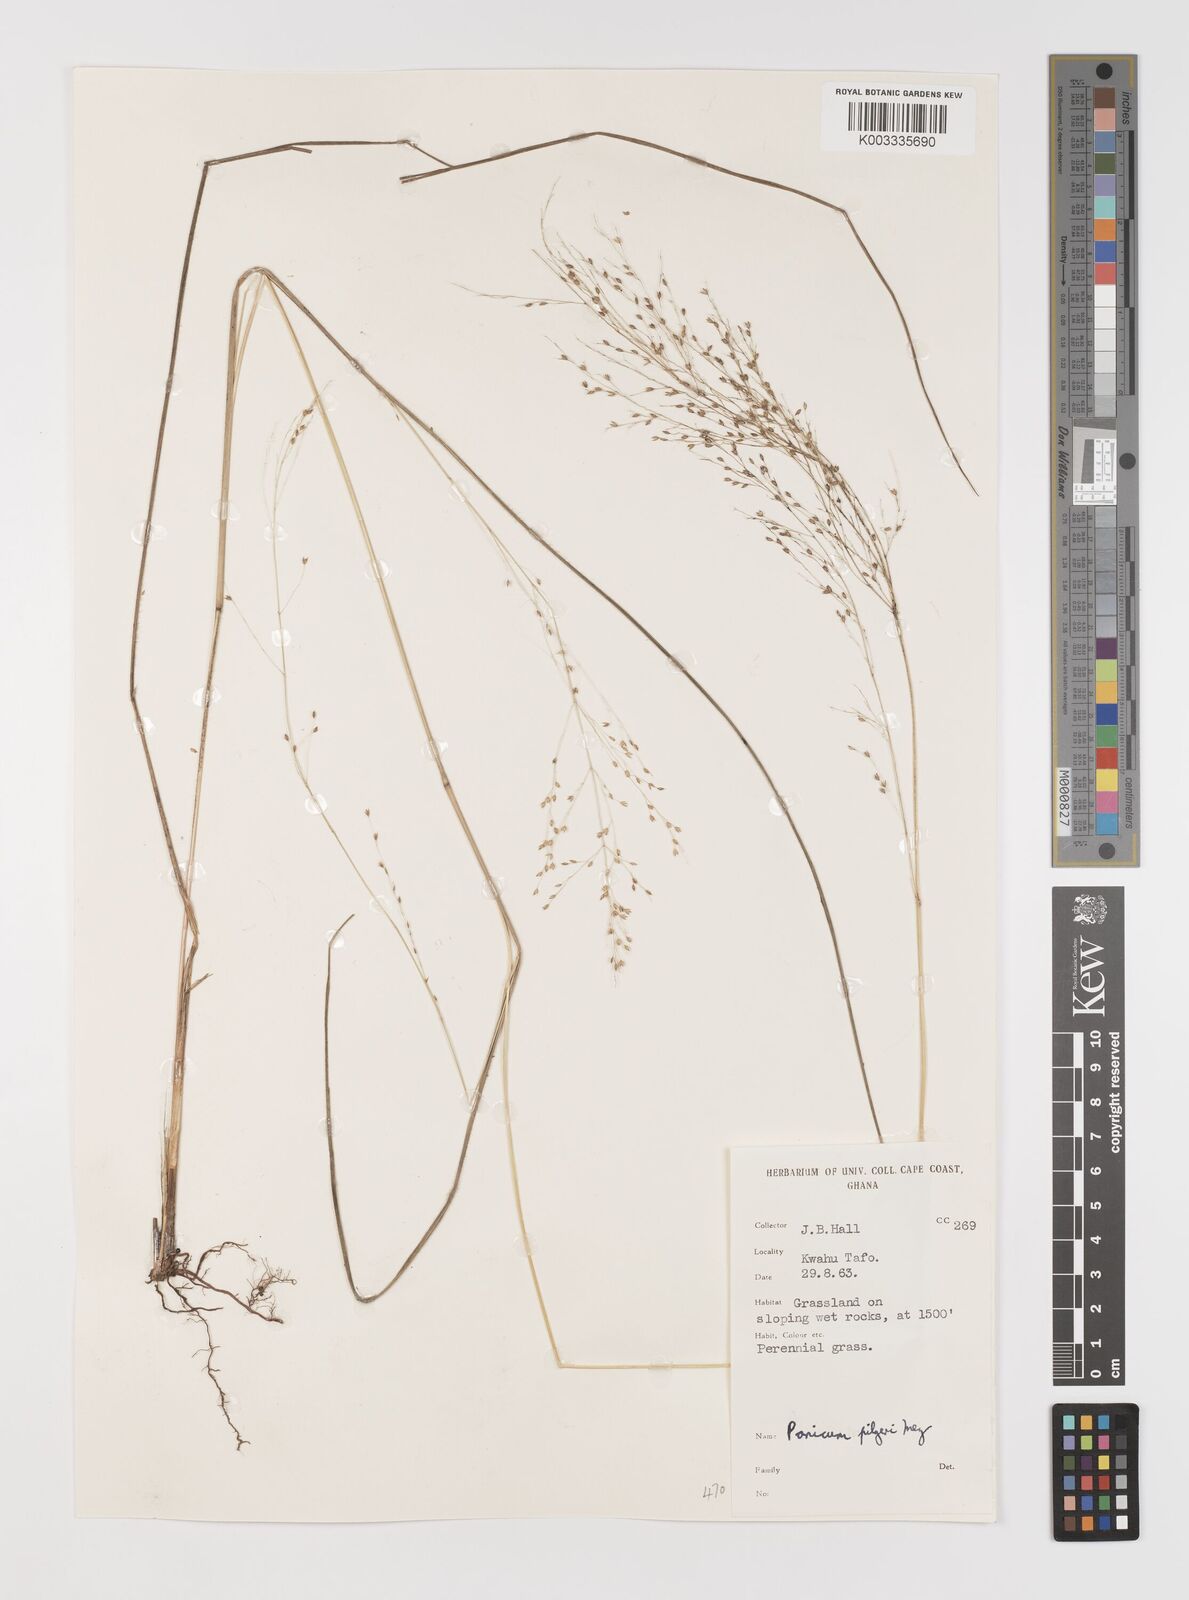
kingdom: Plantae
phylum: Tracheophyta
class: Liliopsida
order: Poales
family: Poaceae
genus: Panicum
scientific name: Panicum
